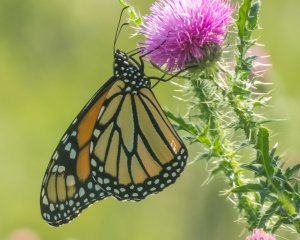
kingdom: Animalia
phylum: Arthropoda
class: Insecta
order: Lepidoptera
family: Nymphalidae
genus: Danaus
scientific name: Danaus plexippus
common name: Monarch
